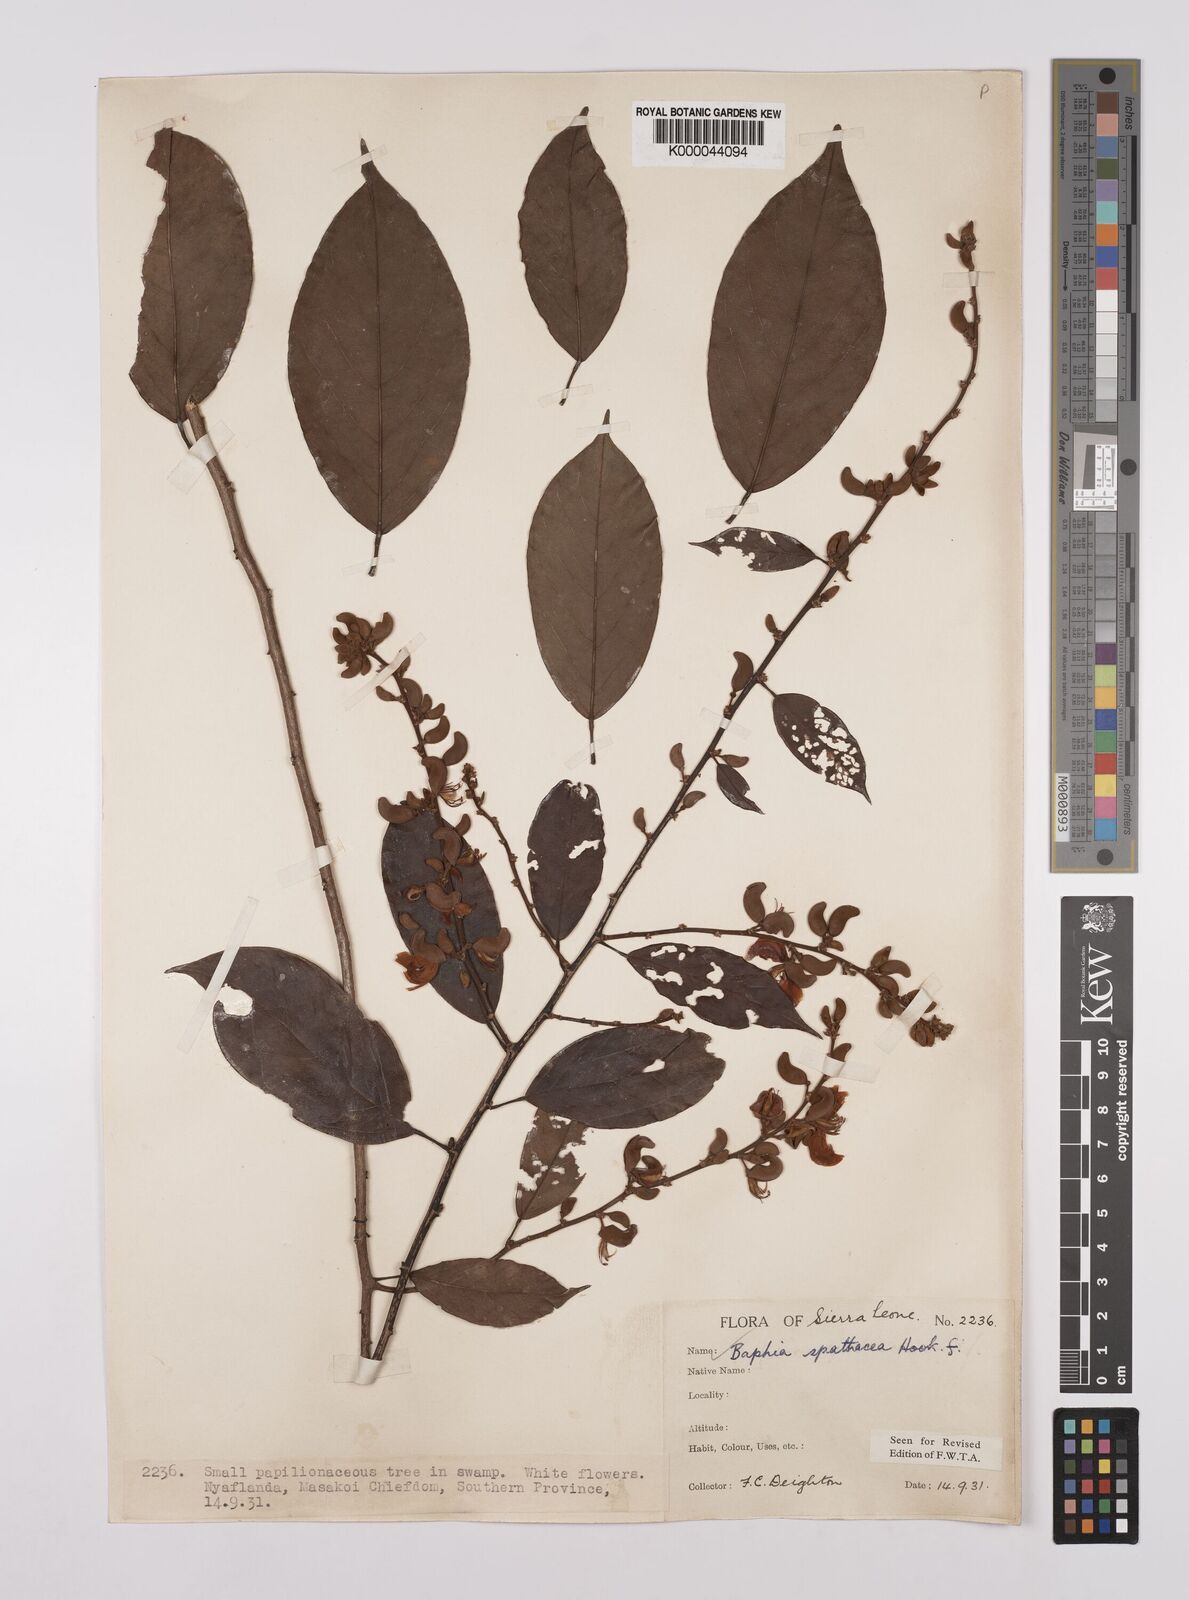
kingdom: Plantae
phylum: Tracheophyta
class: Magnoliopsida
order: Fabales
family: Fabaceae
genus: Baphia
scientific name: Baphia spathacea
